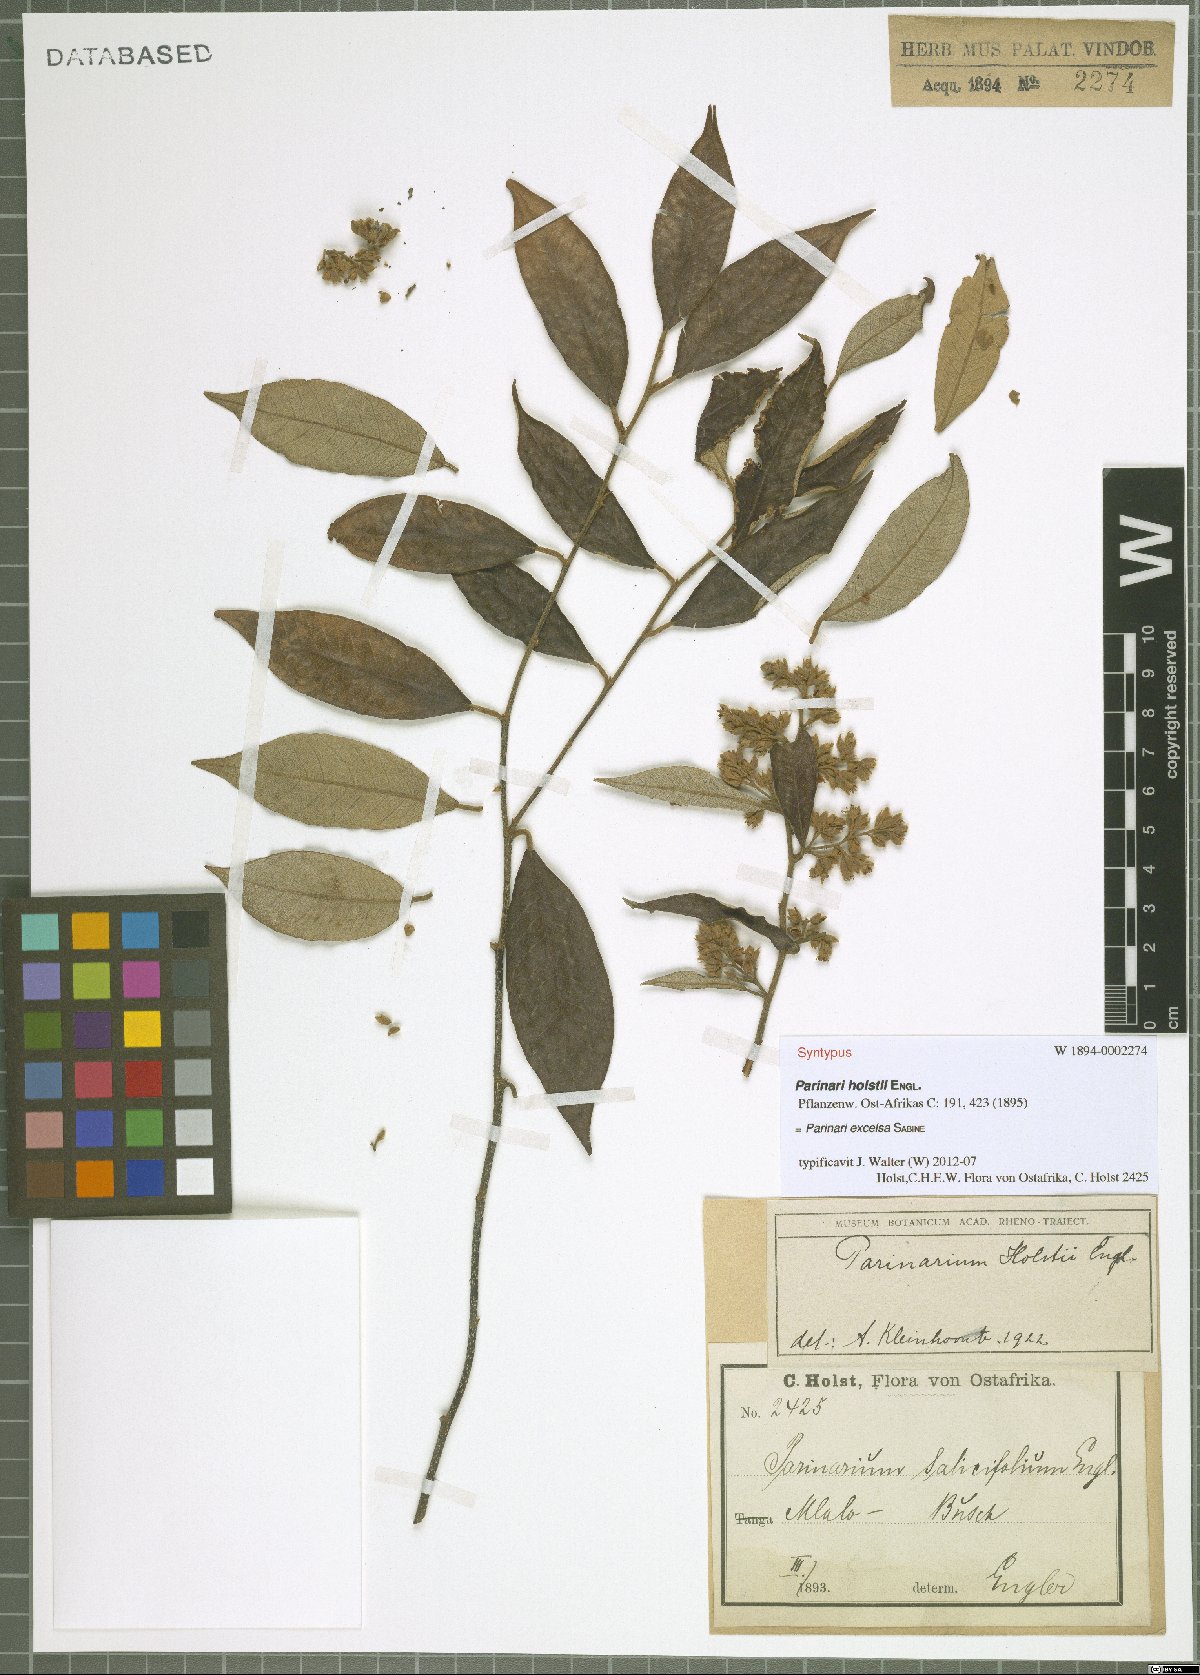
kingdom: Plantae
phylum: Tracheophyta
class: Magnoliopsida
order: Malpighiales
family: Chrysobalanaceae
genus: Parinari
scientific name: Parinari excelsa
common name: Guinea-plum
